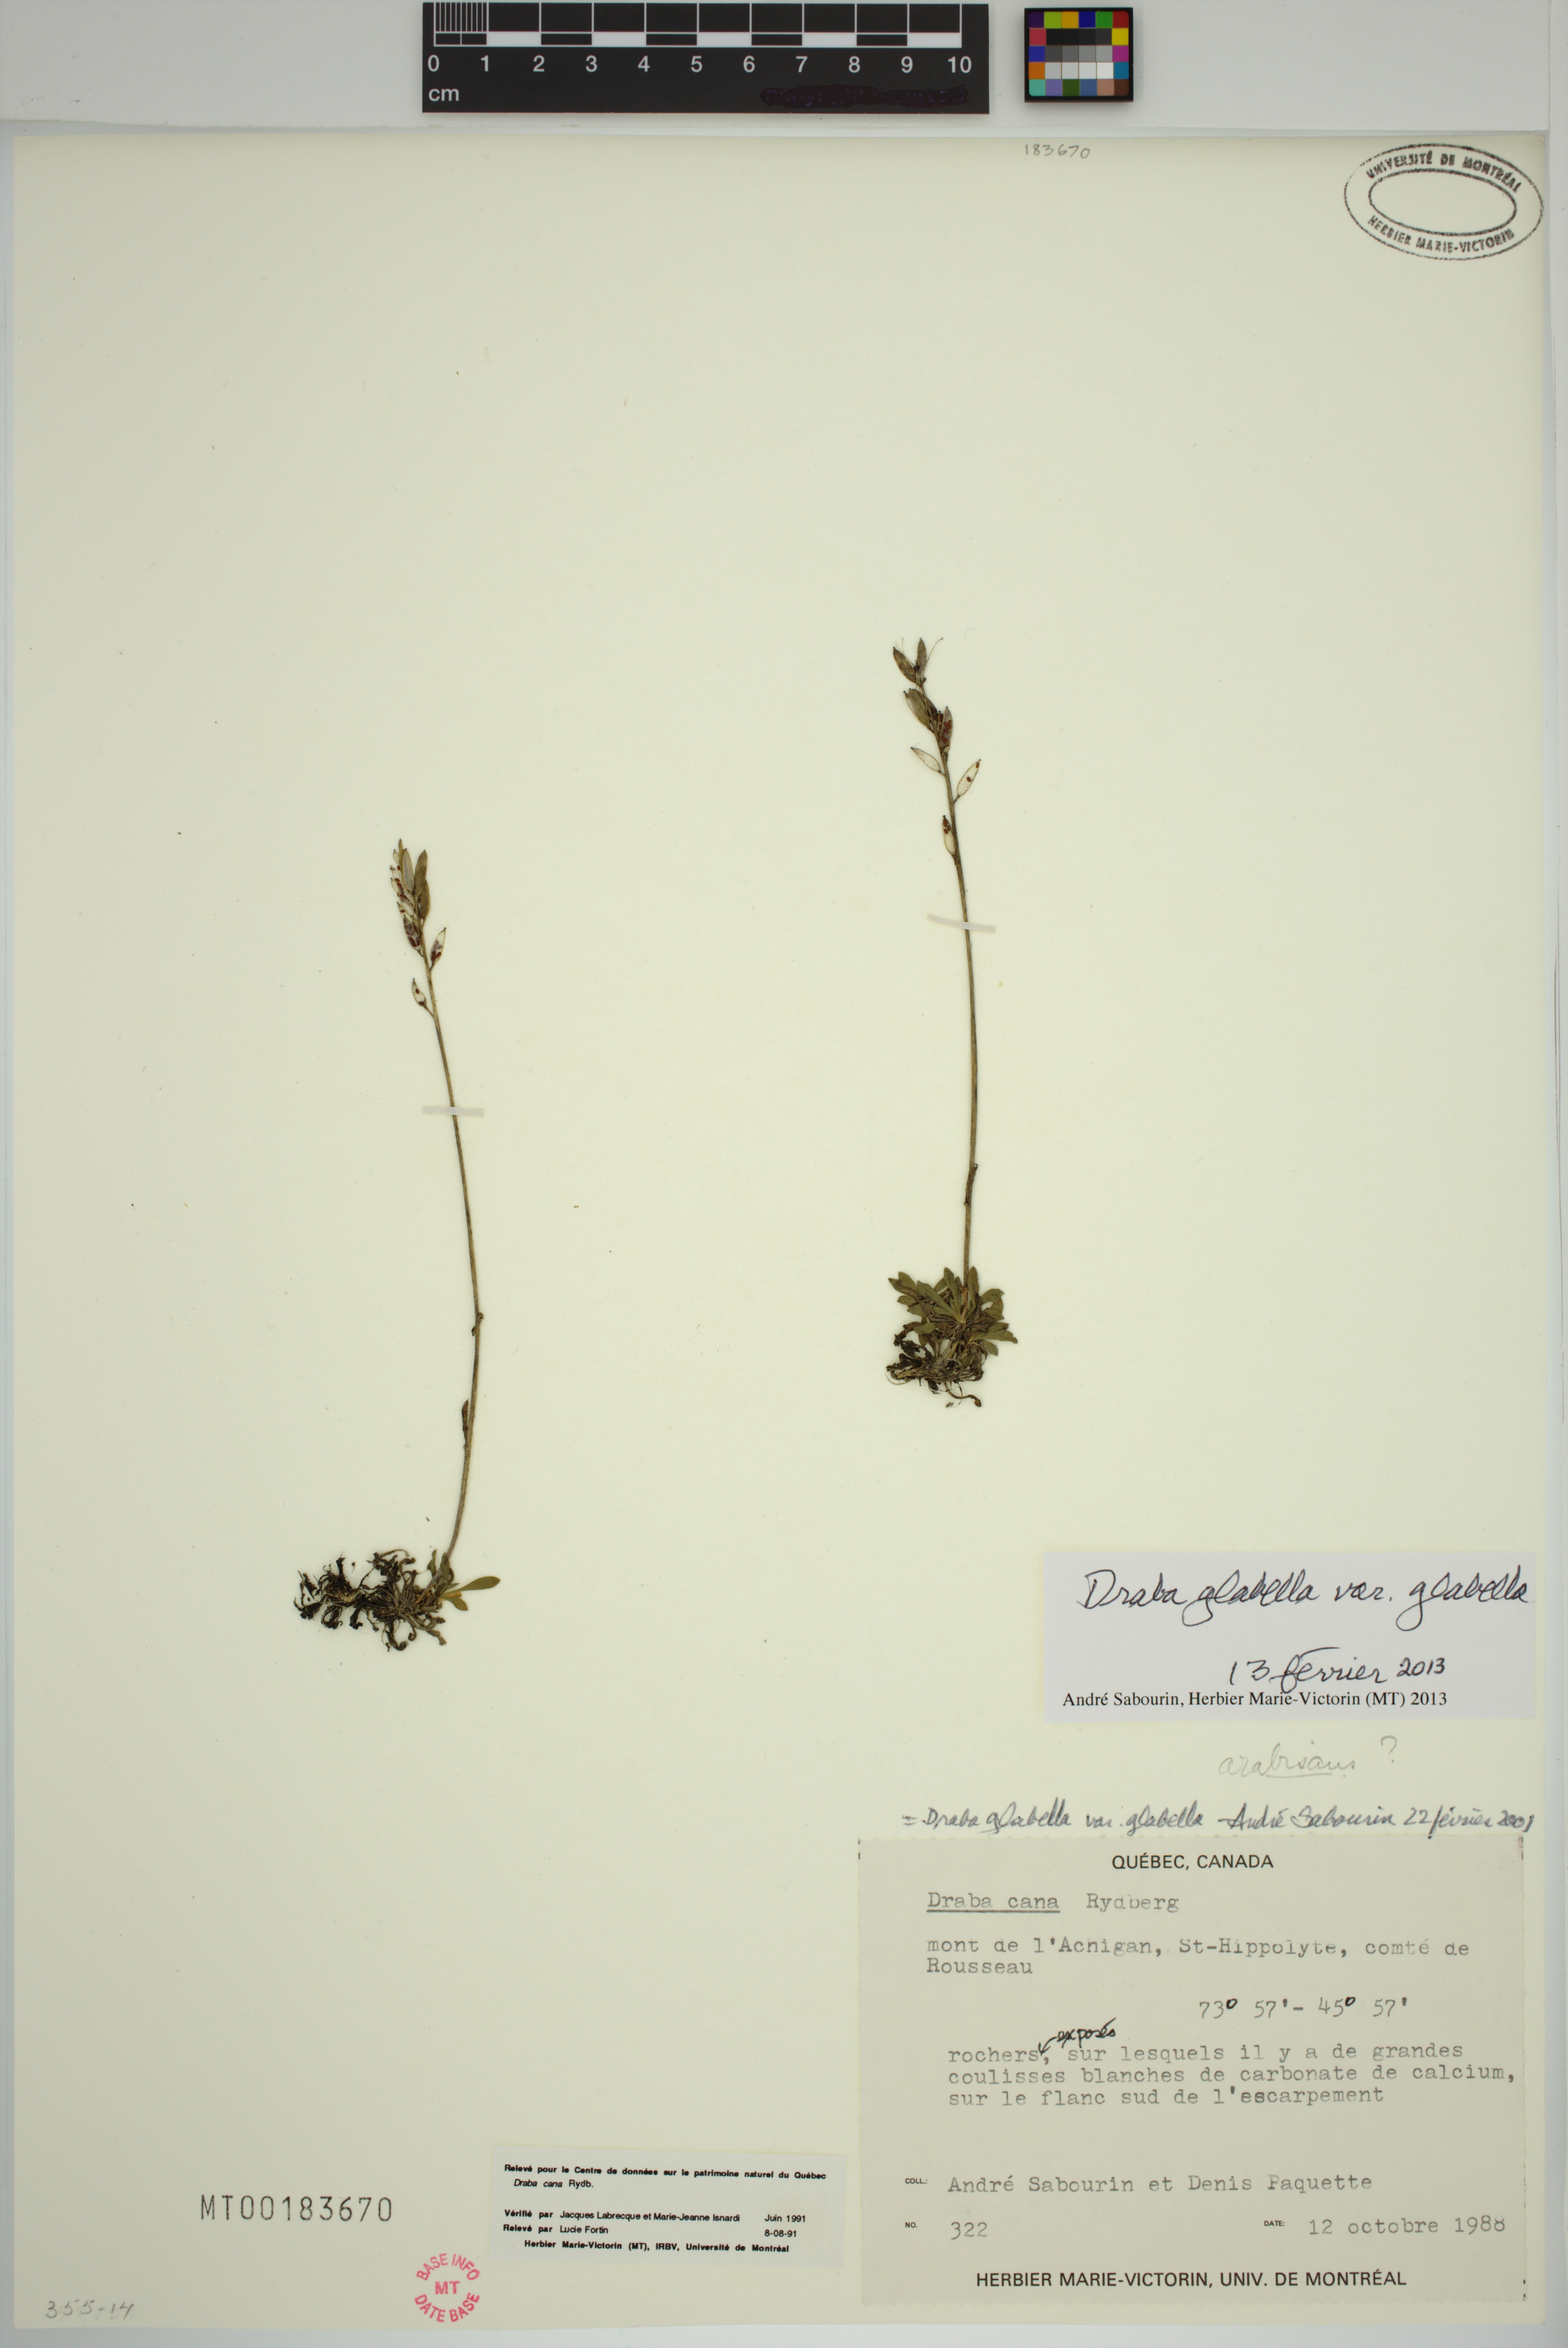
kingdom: Plantae
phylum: Tracheophyta
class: Magnoliopsida
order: Brassicales
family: Brassicaceae
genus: Draba
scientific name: Draba glabella
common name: Glaucous draba
